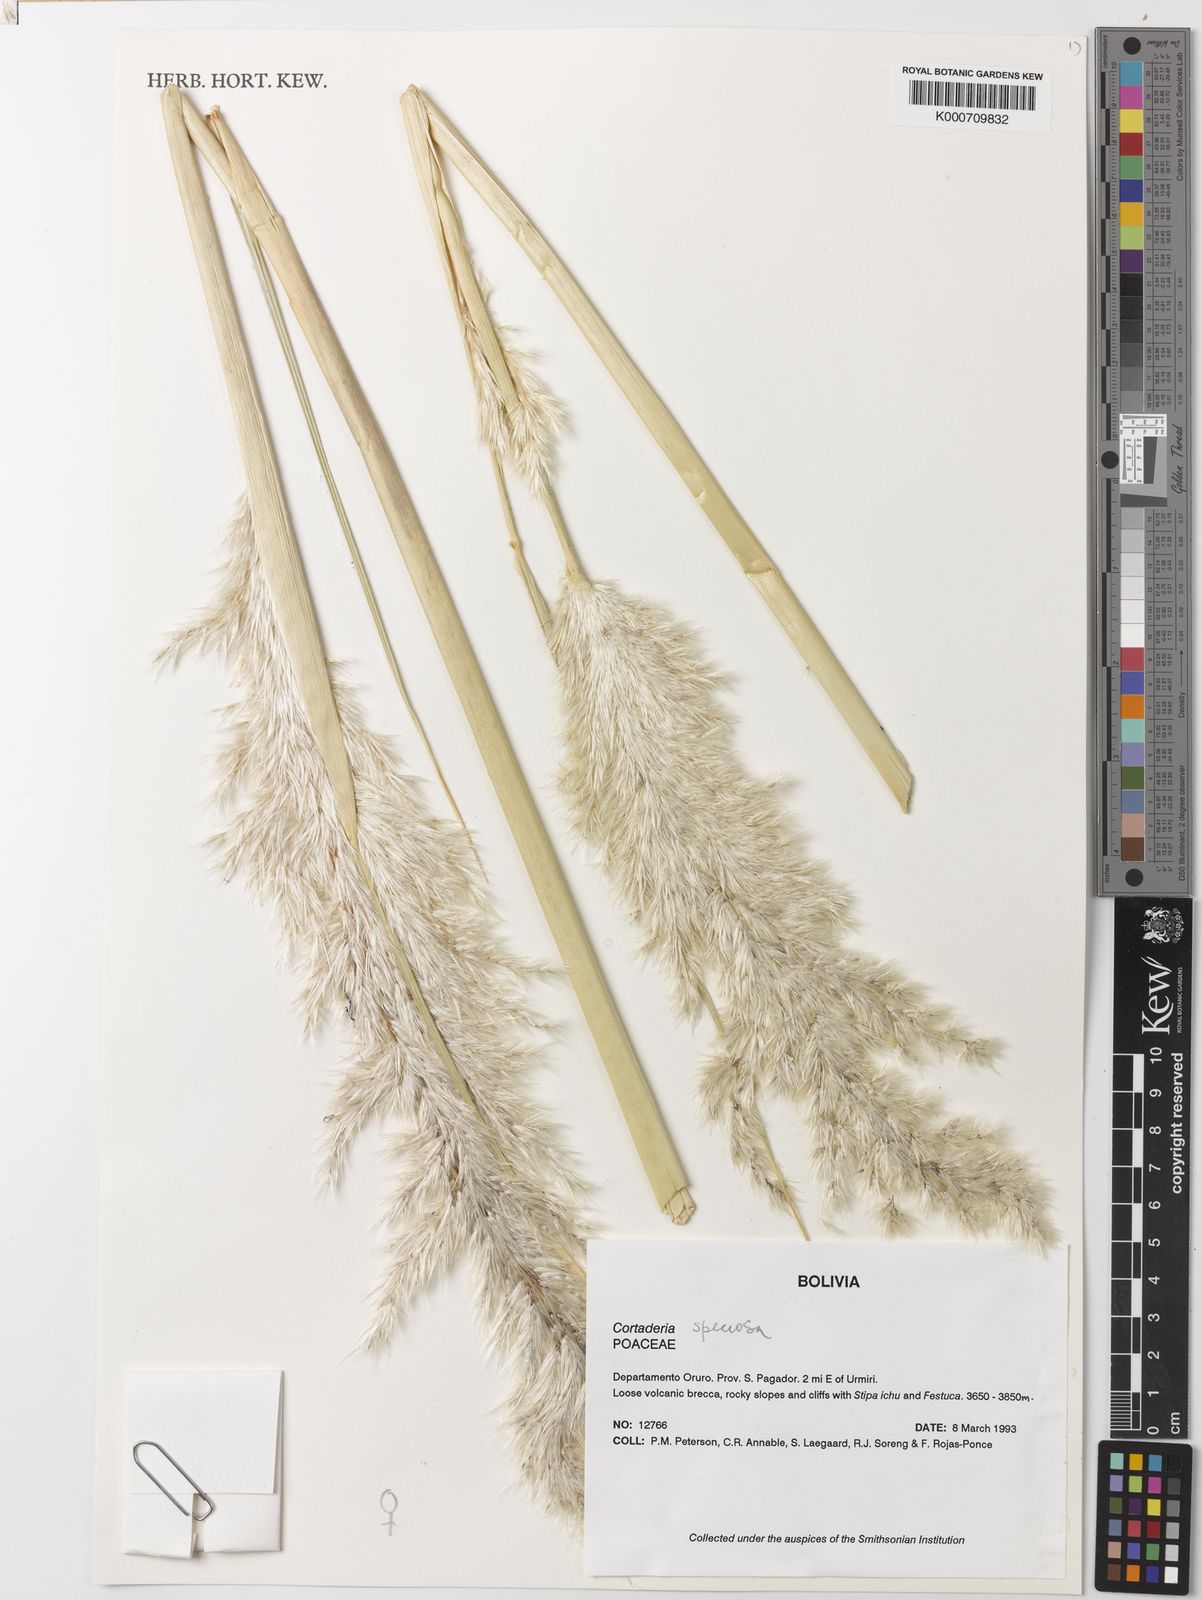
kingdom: Plantae
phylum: Tracheophyta
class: Liliopsida
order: Poales
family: Poaceae
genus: Cortaderia
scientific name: Cortaderia speciosa
